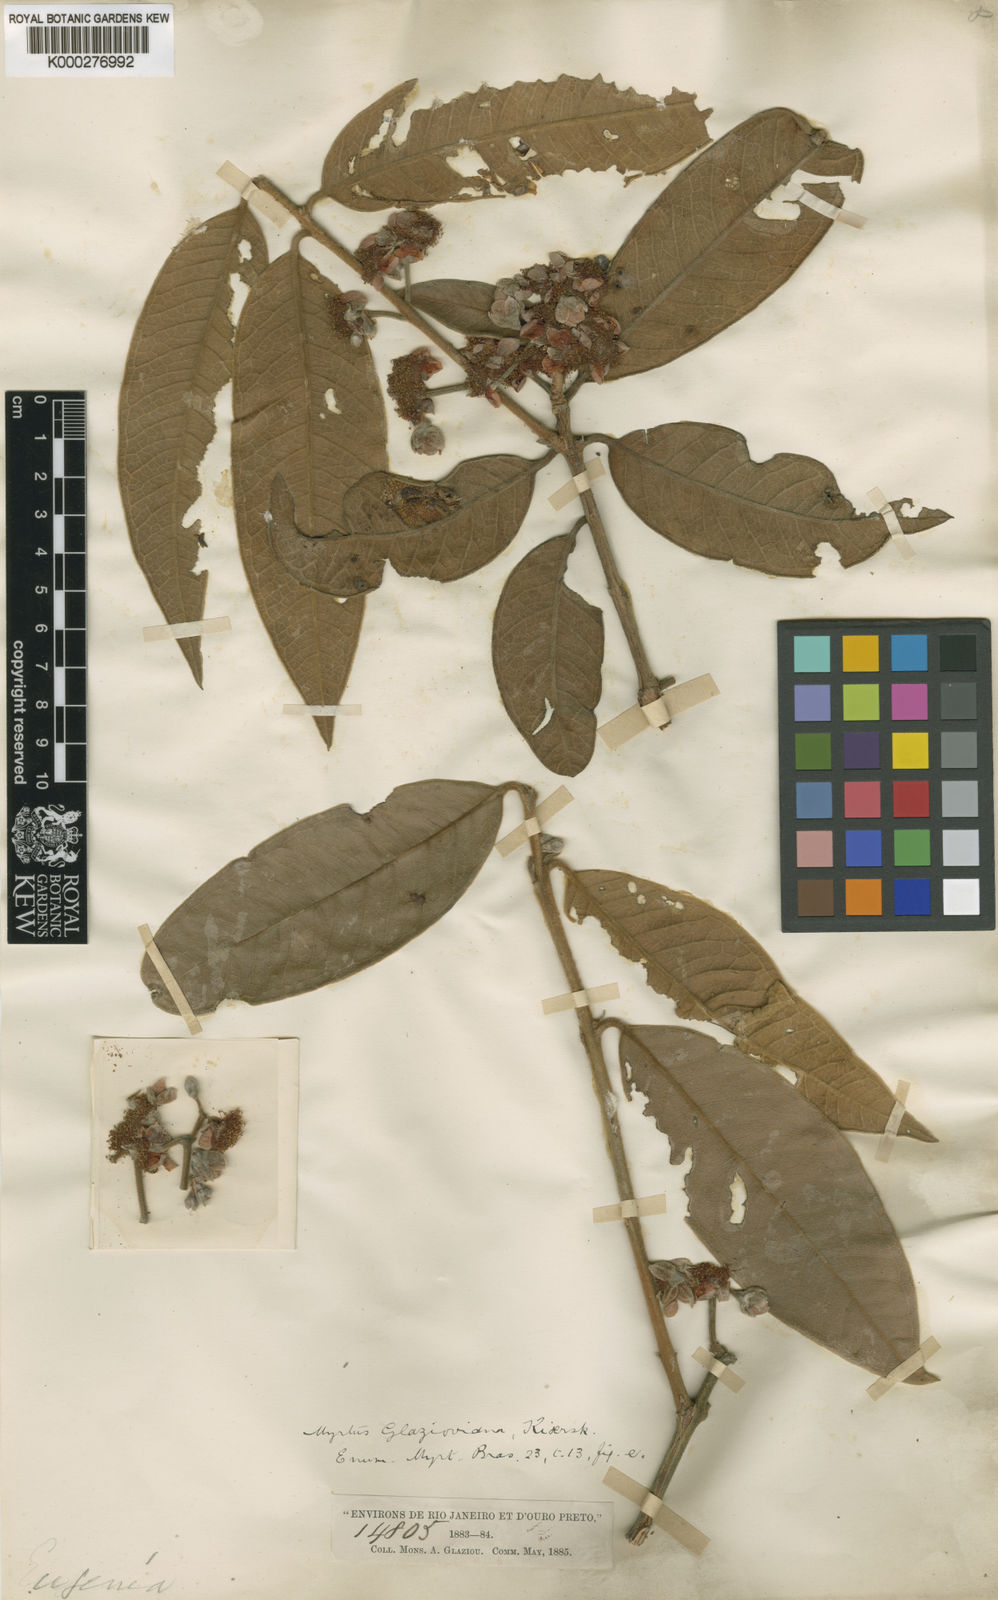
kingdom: Plantae
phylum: Tracheophyta
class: Magnoliopsida
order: Myrtales
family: Myrtaceae
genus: Eugenia
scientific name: Eugenia itajurensis
